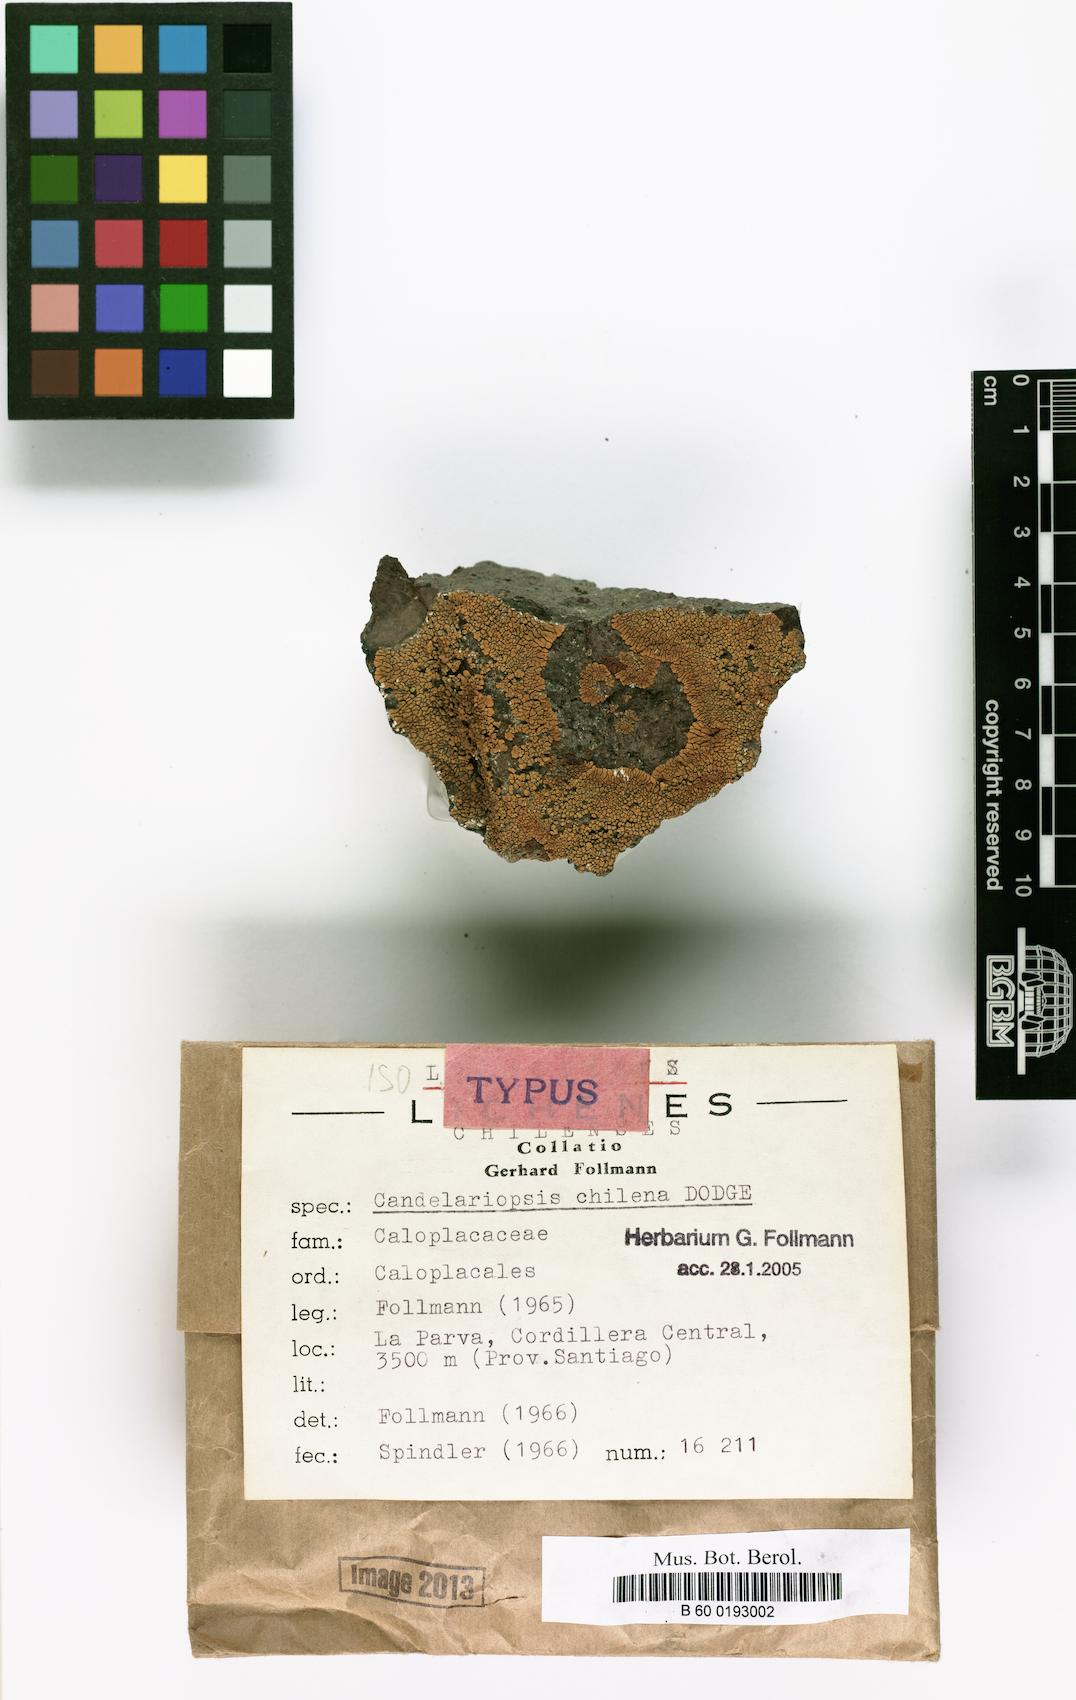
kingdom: Fungi
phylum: Ascomycota
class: Lecanoromycetes
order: Teloschistales
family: Teloschistaceae
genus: Caloplaca
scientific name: Caloplaca
